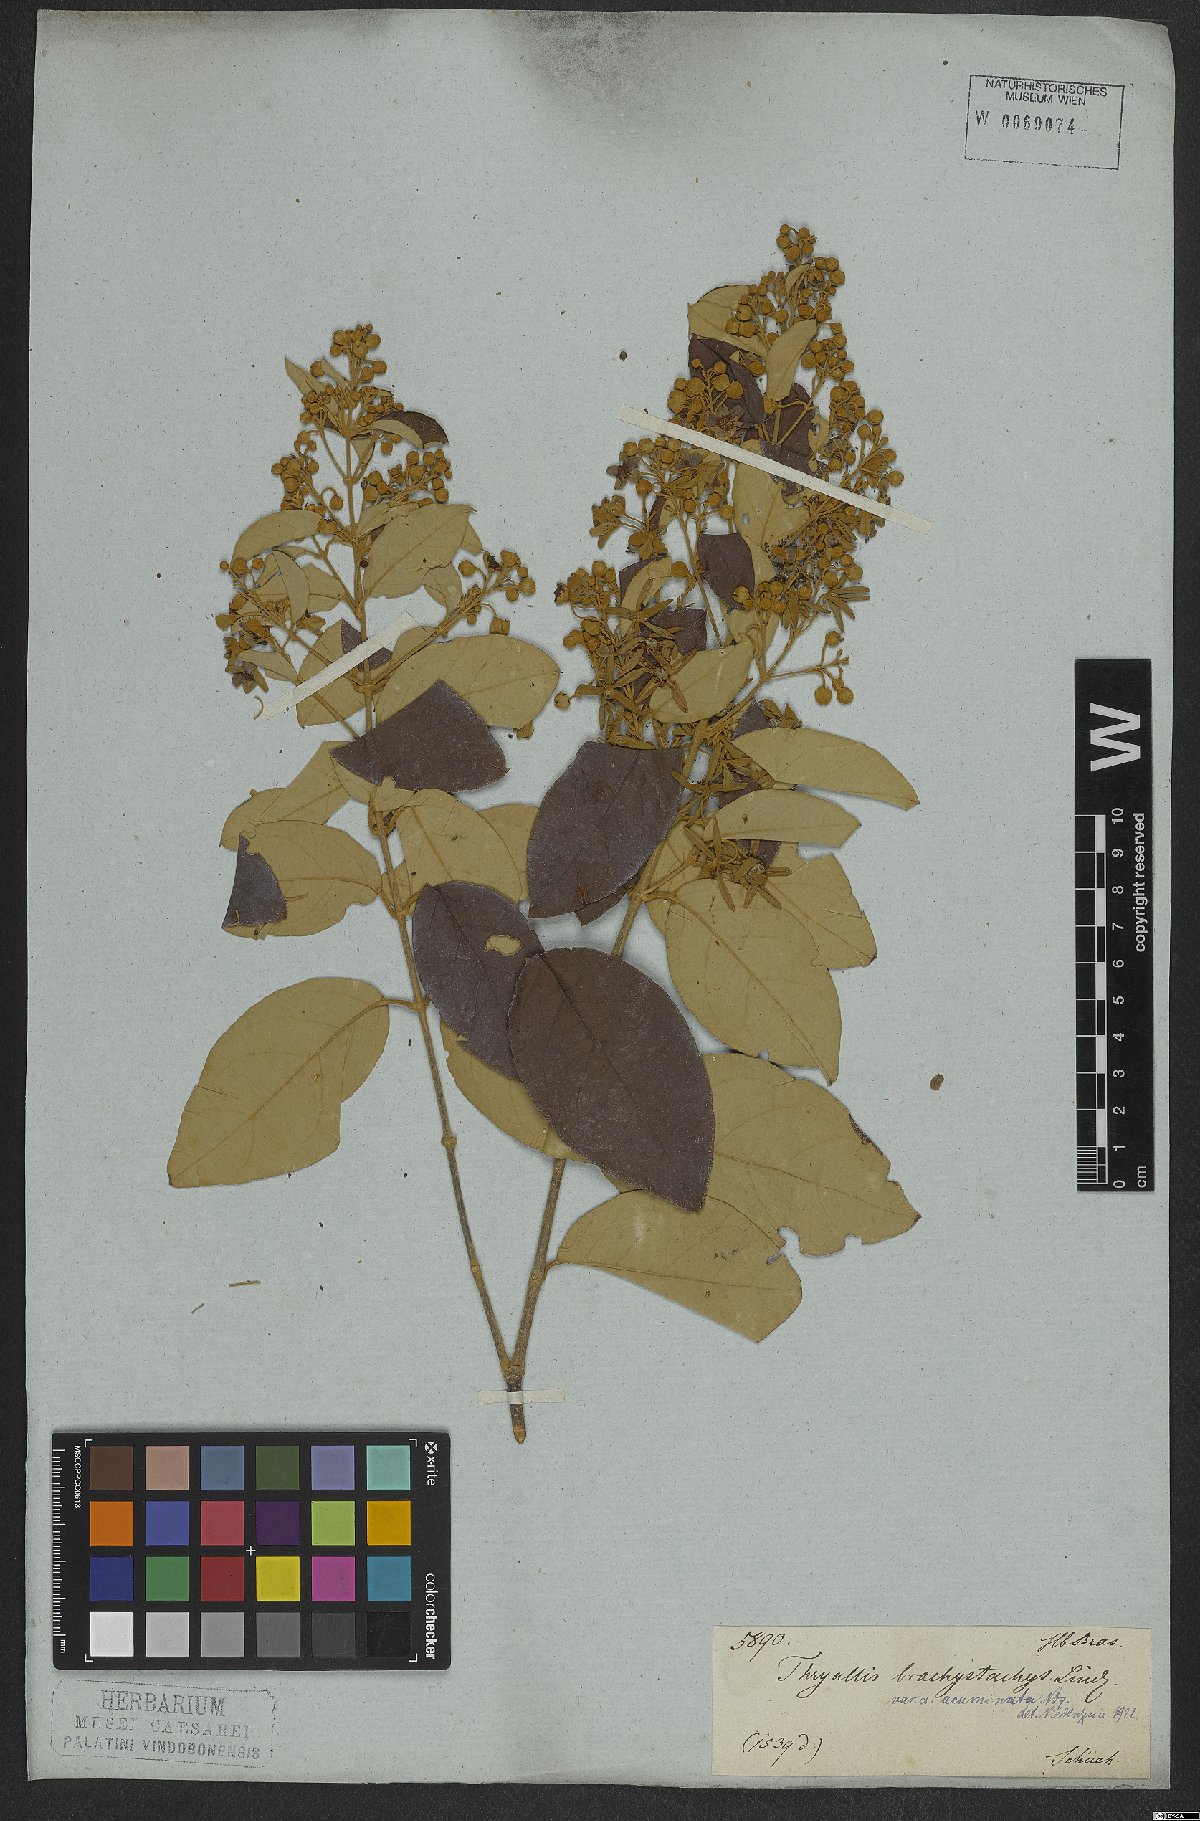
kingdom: Plantae
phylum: Tracheophyta
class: Magnoliopsida
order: Malpighiales
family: Malpighiaceae
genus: Thryallis
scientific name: Thryallis laburnum
